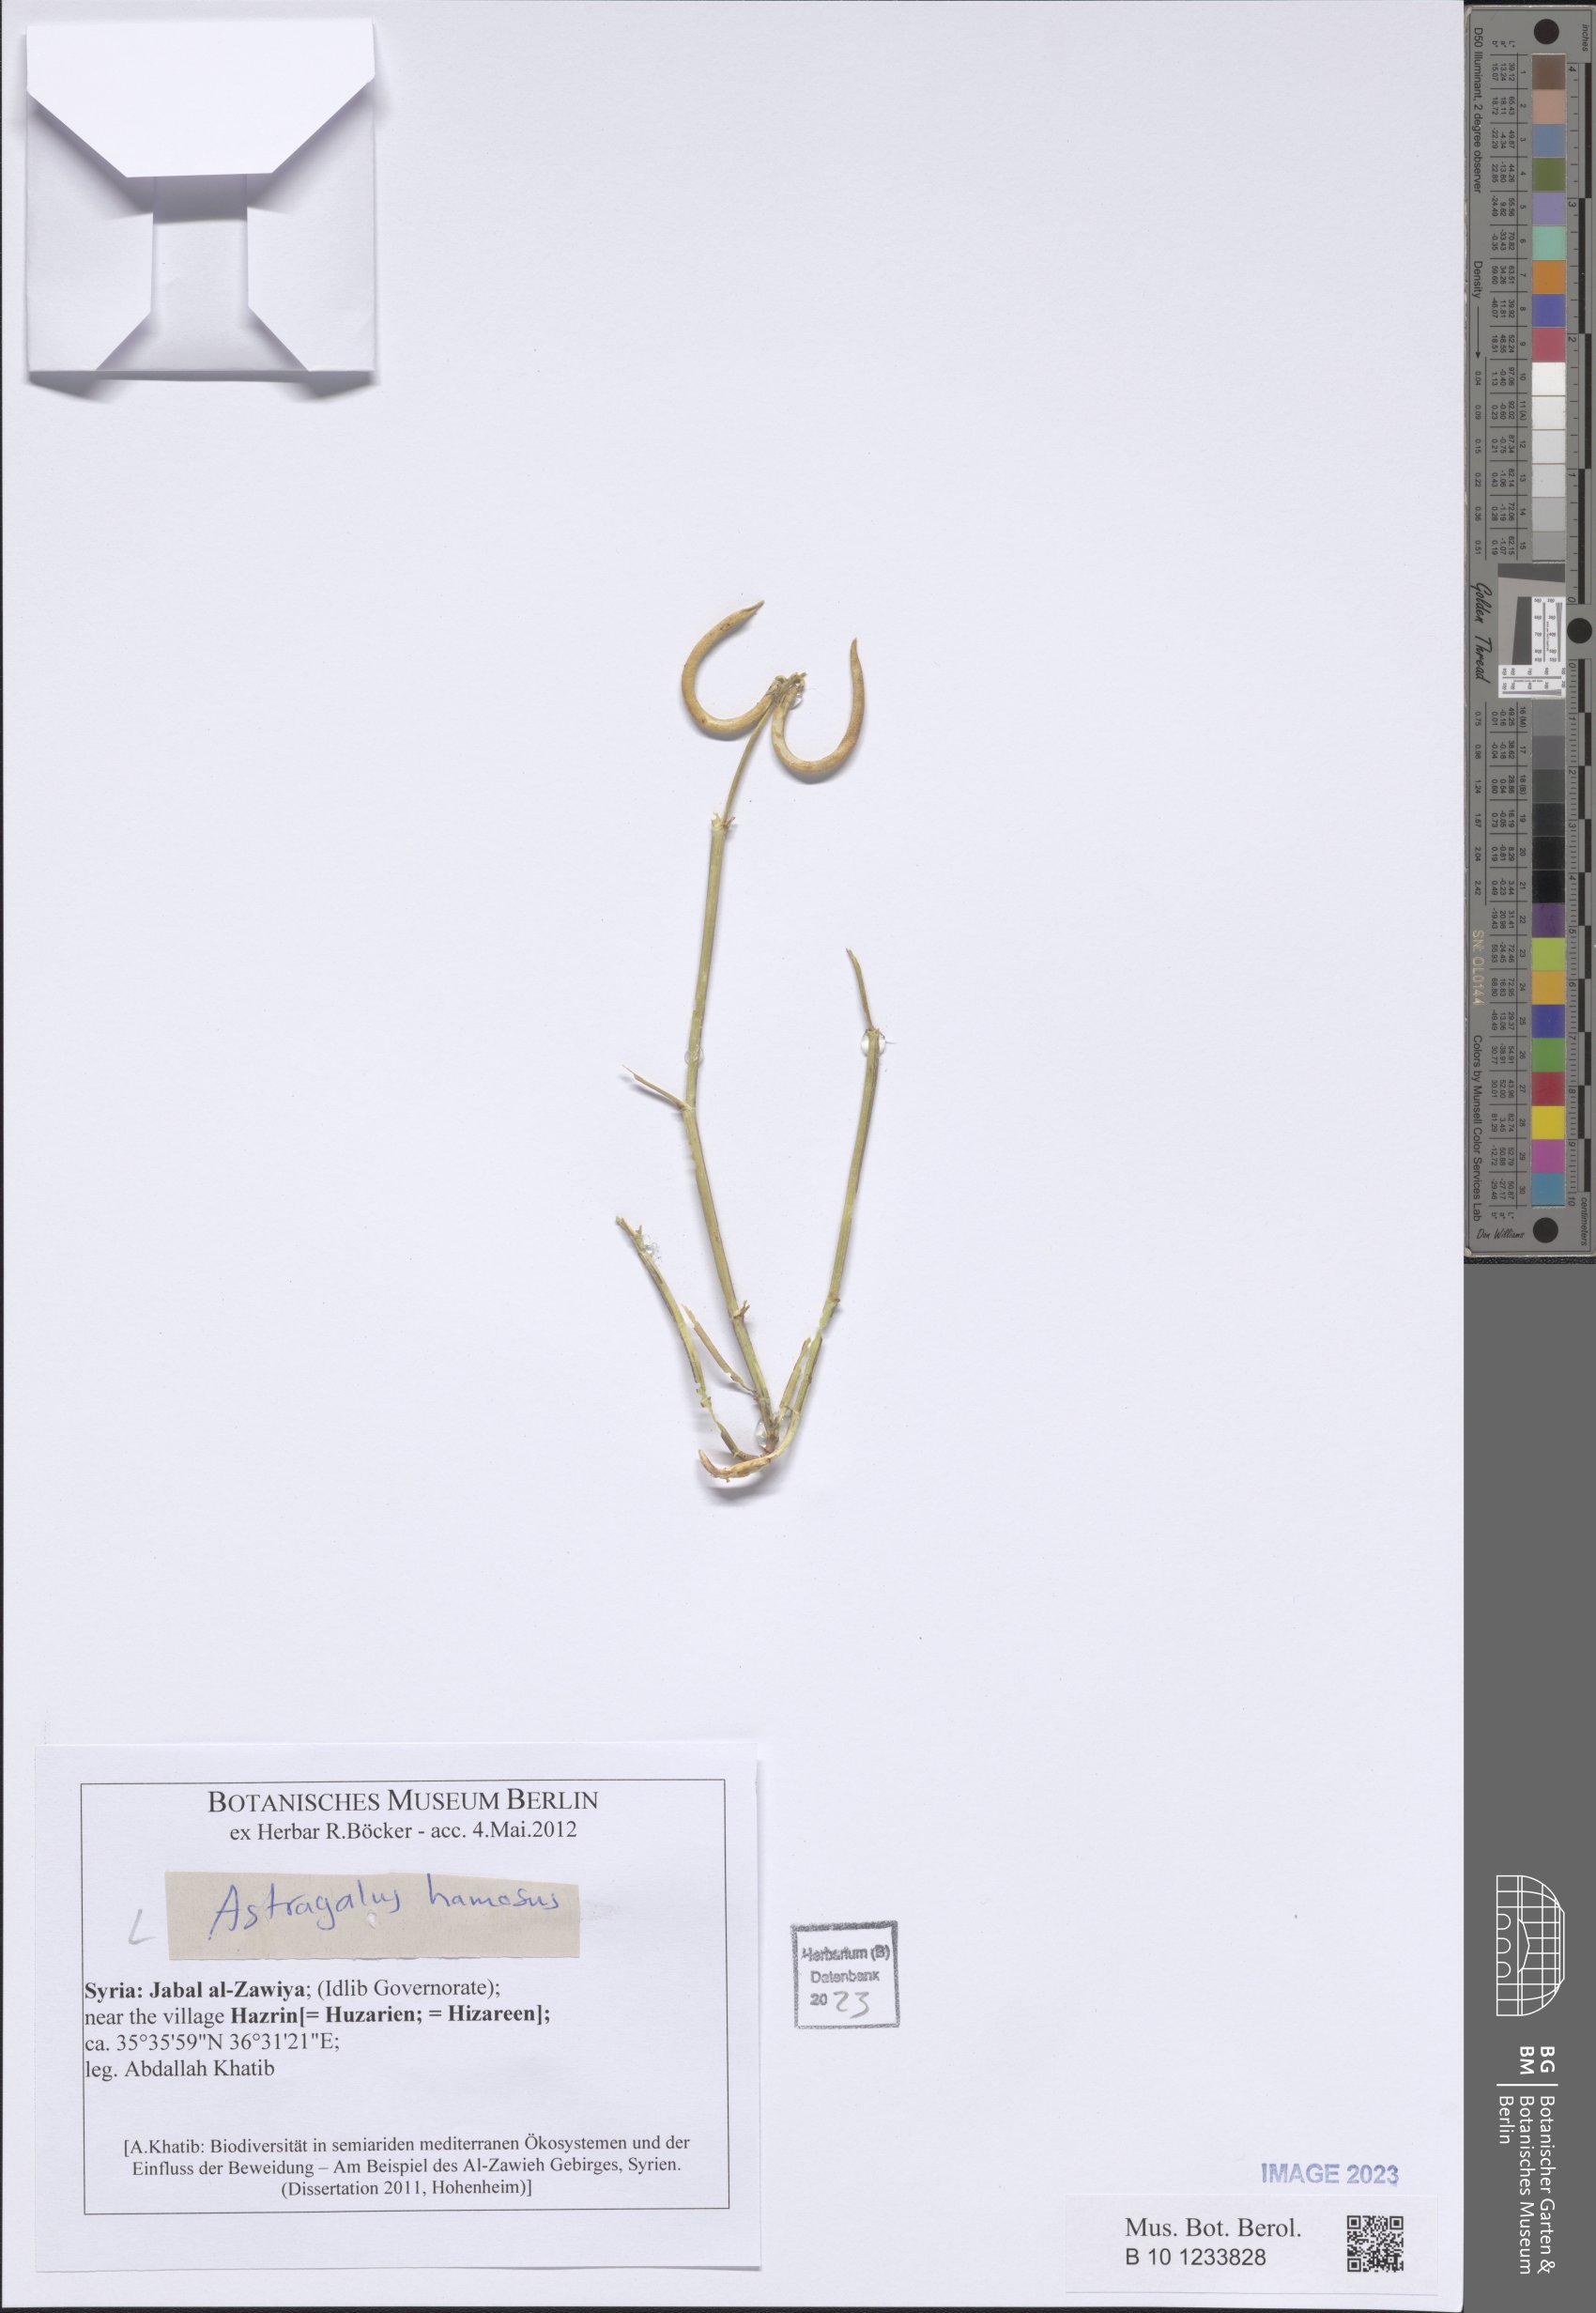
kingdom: Plantae
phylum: Tracheophyta
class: Magnoliopsida
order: Fabales
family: Fabaceae
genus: Astragalus
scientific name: Astragalus hamosus
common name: European milkvetch
